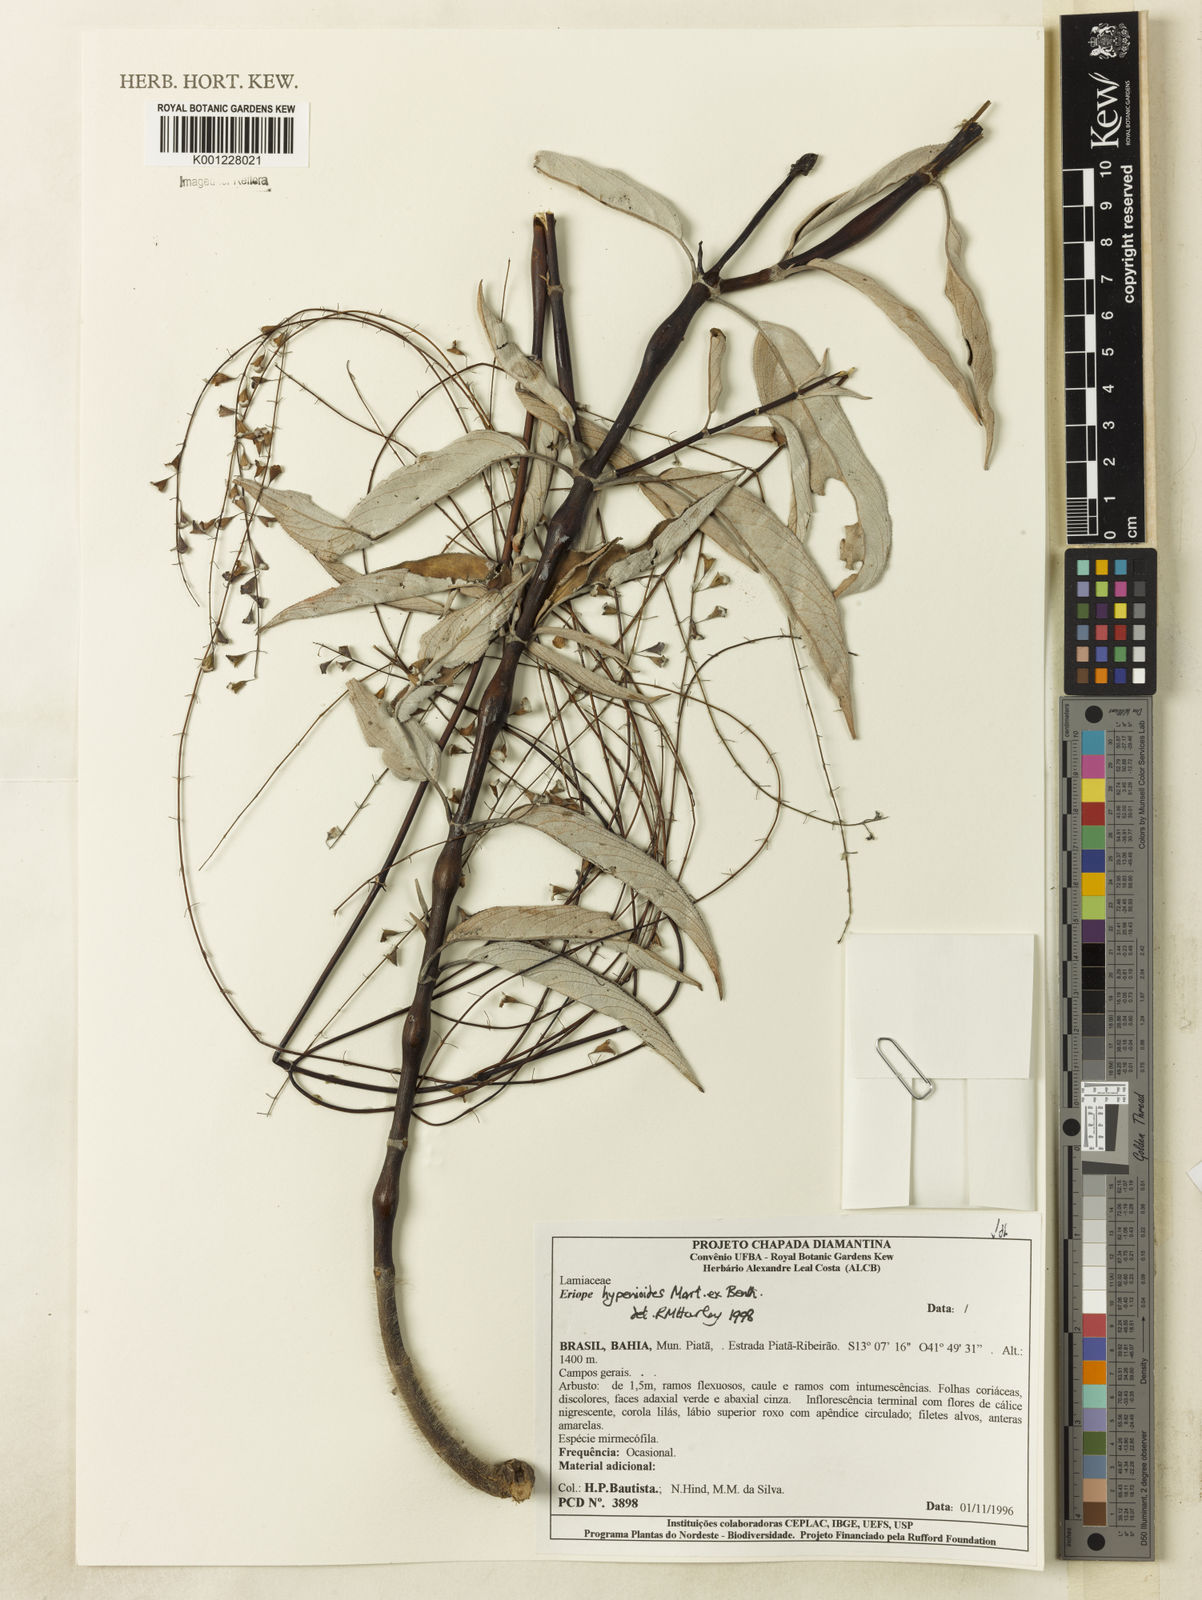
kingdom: Plantae
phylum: Tracheophyta
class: Magnoliopsida
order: Lamiales
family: Lamiaceae
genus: Eriope
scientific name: Eriope hypenioides
